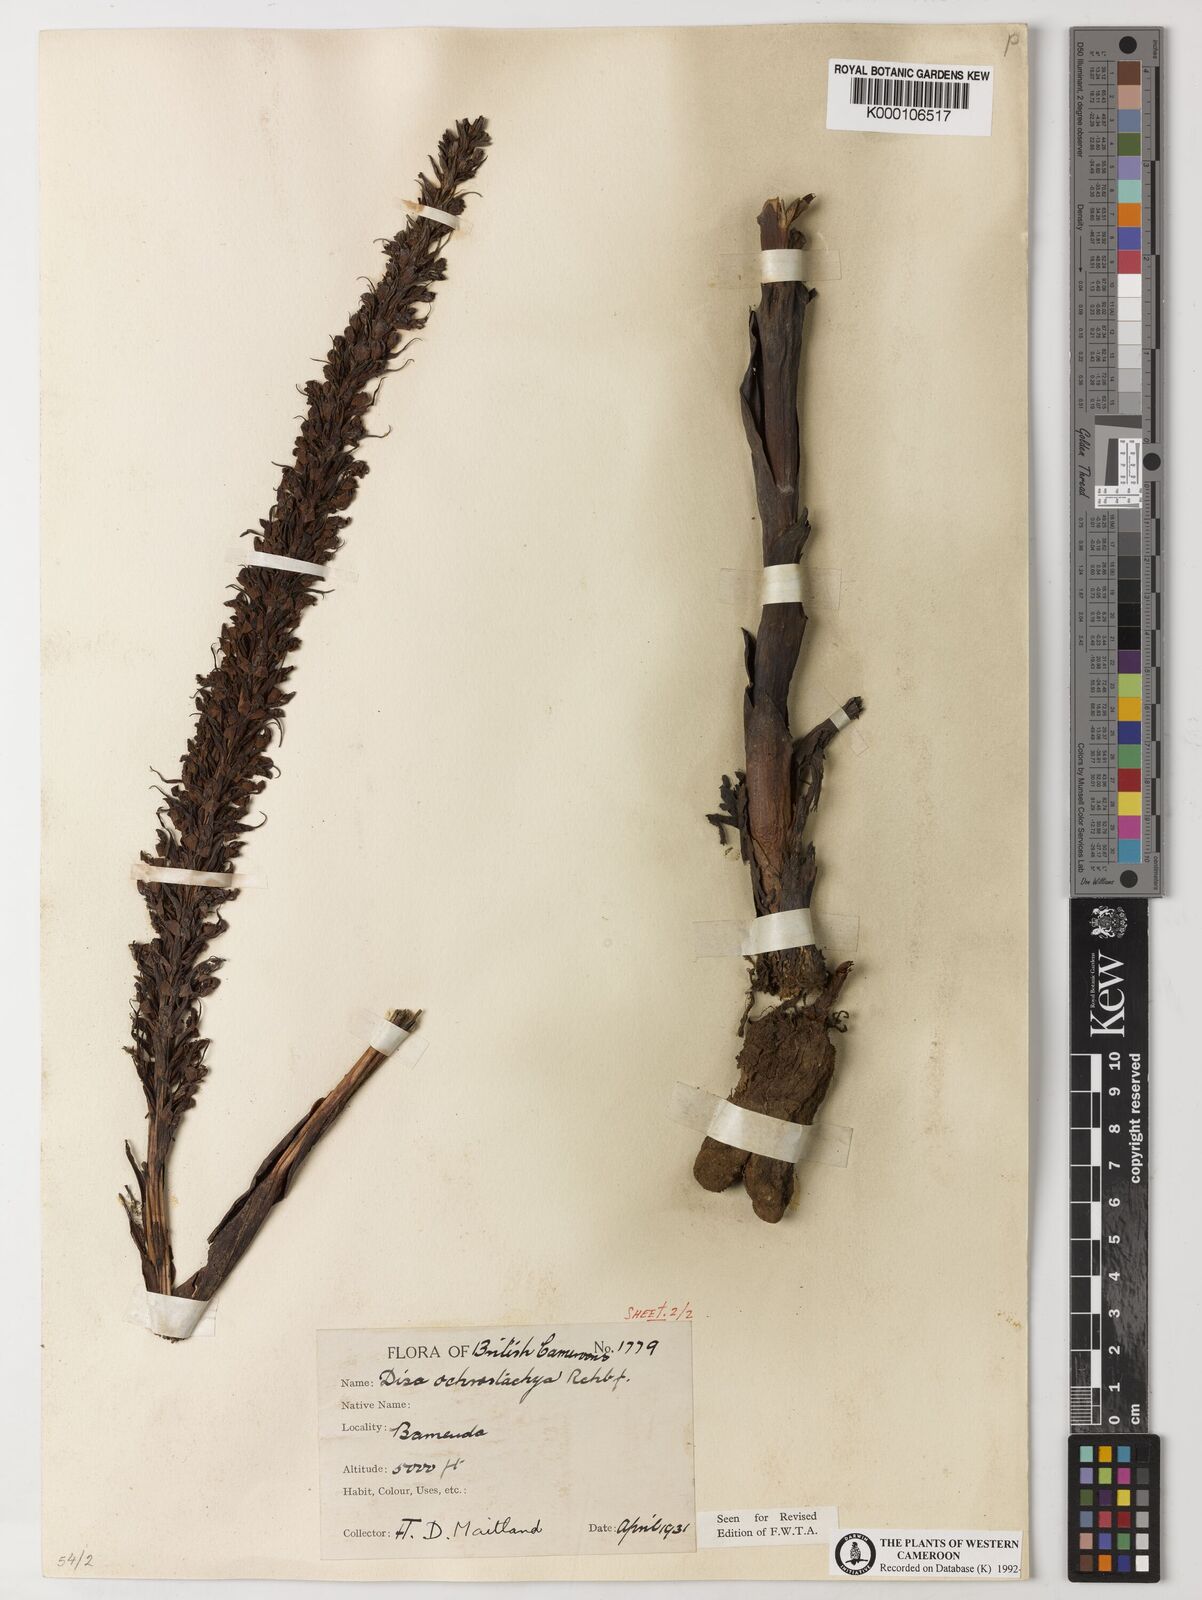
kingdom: Plantae
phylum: Tracheophyta
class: Liliopsida
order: Asparagales
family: Orchidaceae
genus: Disa
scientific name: Disa ochrostachya
